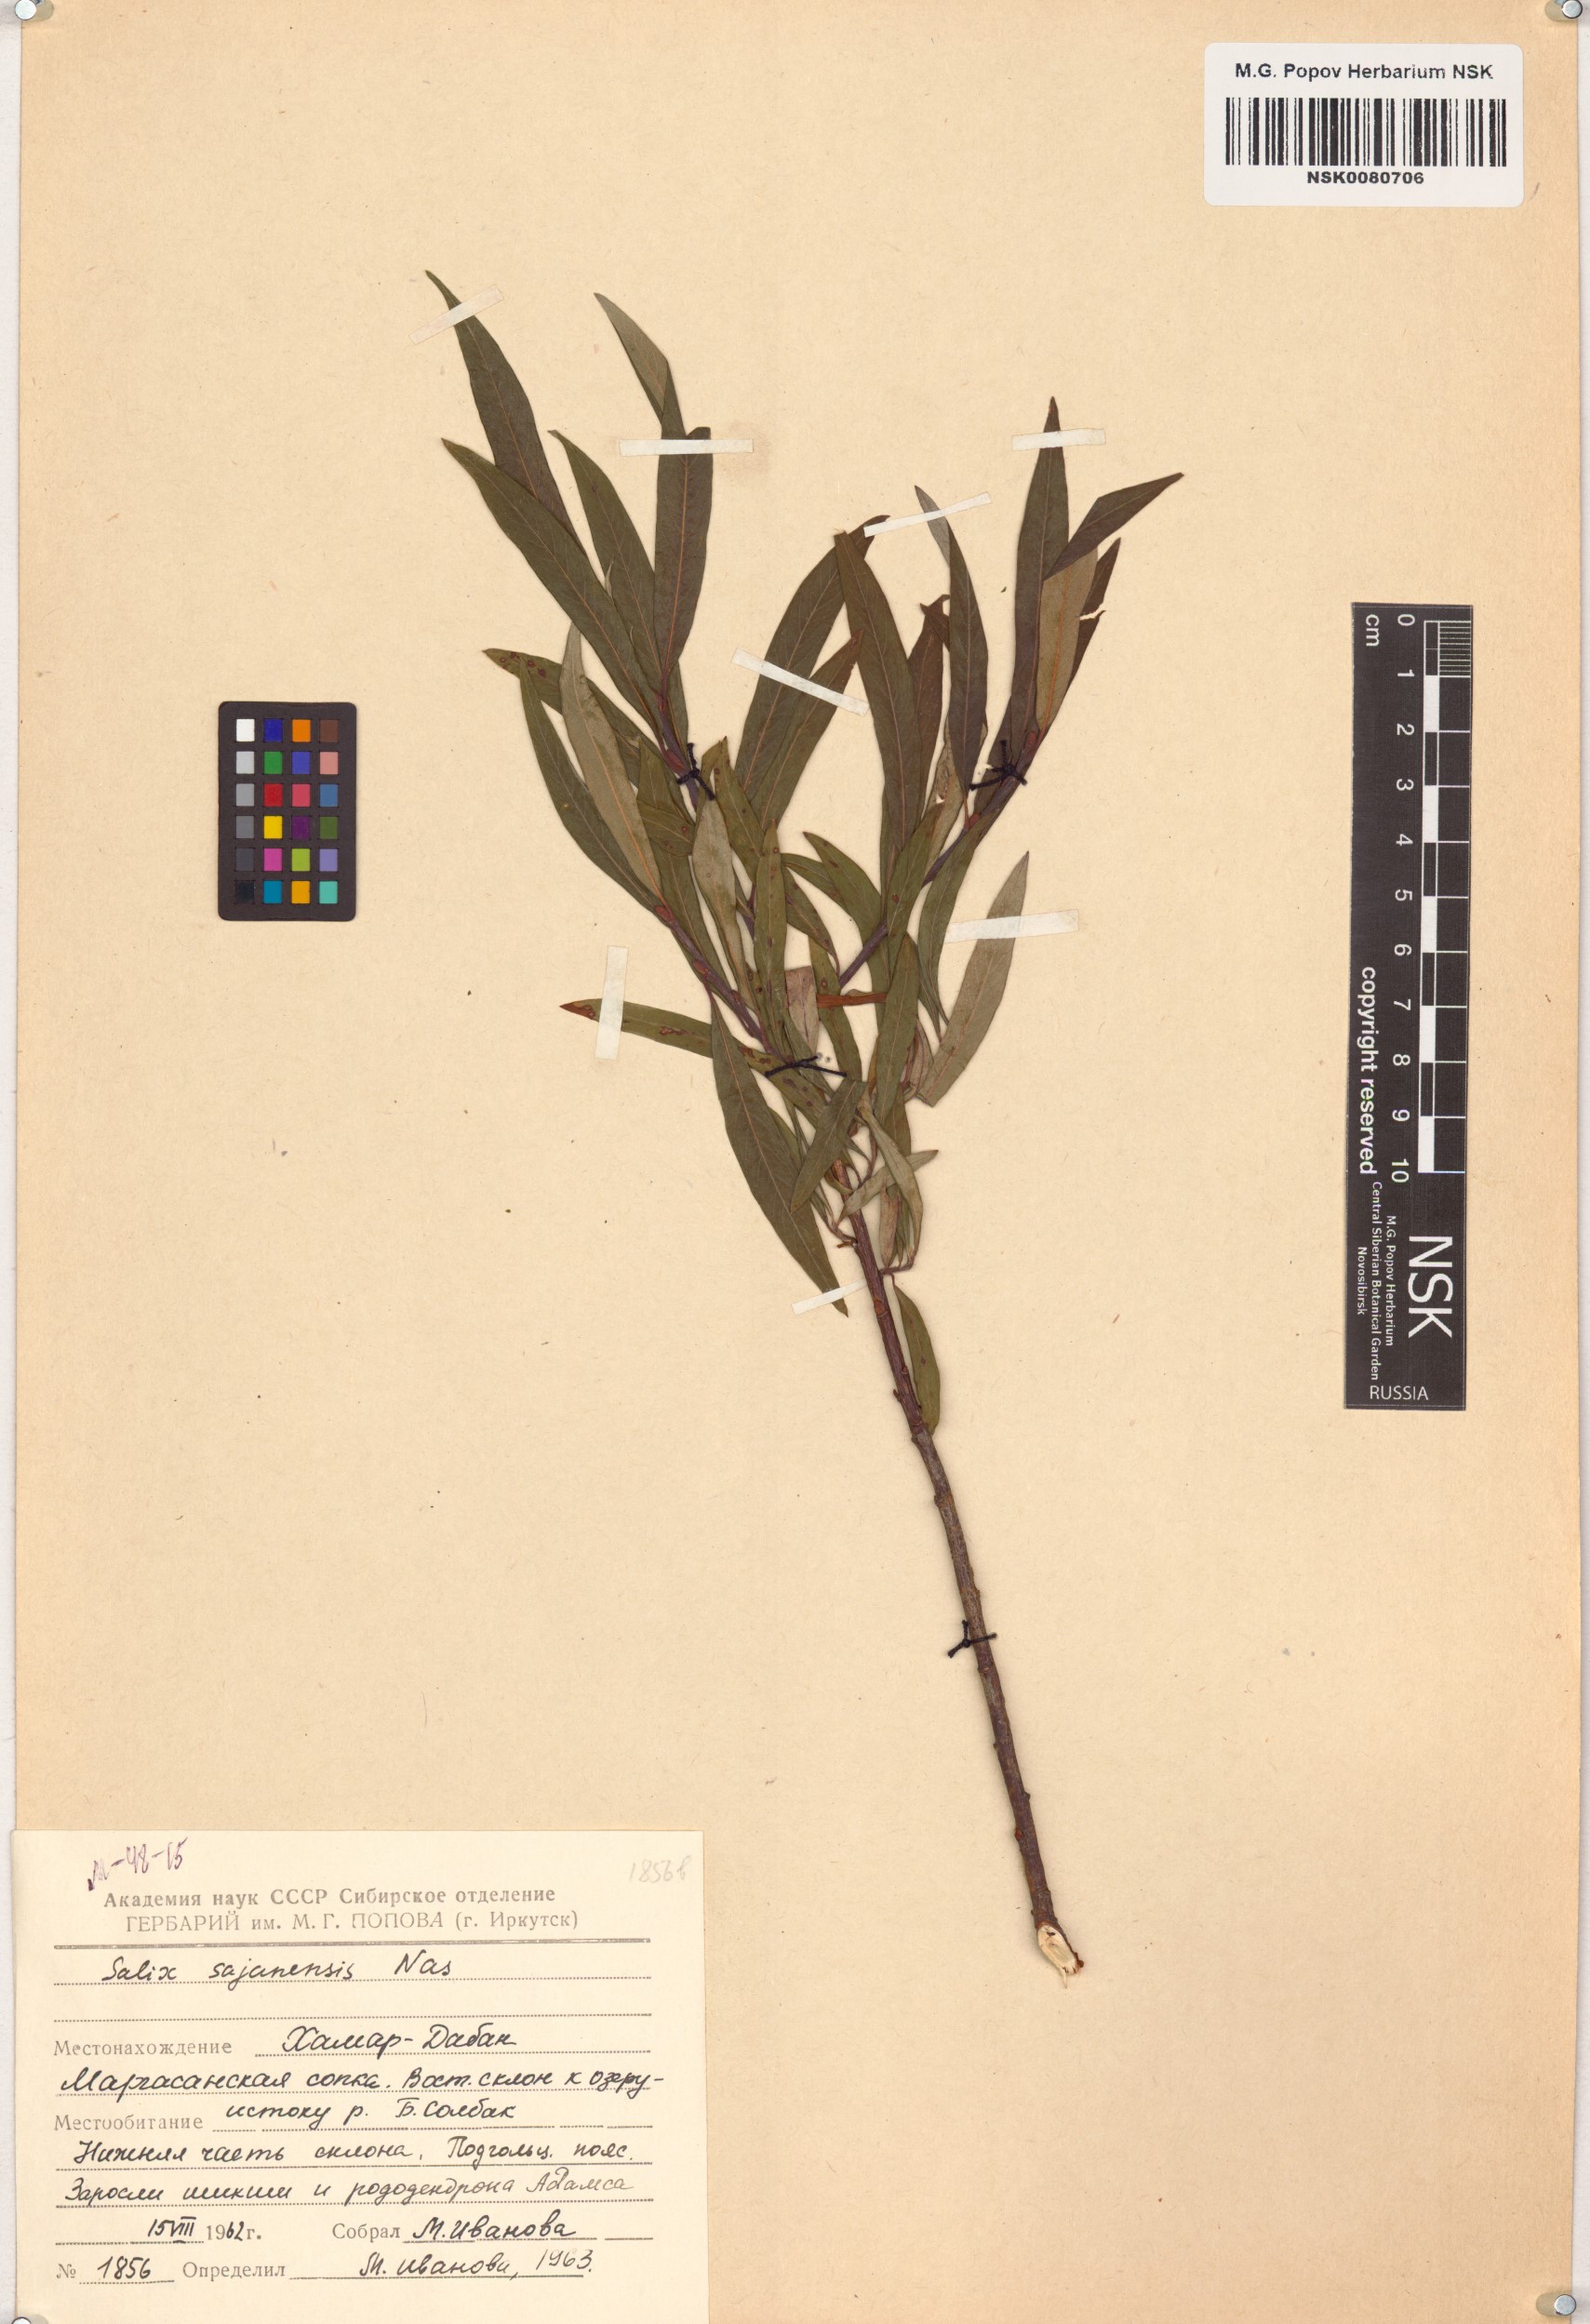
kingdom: Plantae
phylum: Tracheophyta
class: Magnoliopsida
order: Malpighiales
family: Salicaceae
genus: Salix
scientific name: Salix sajanensis
